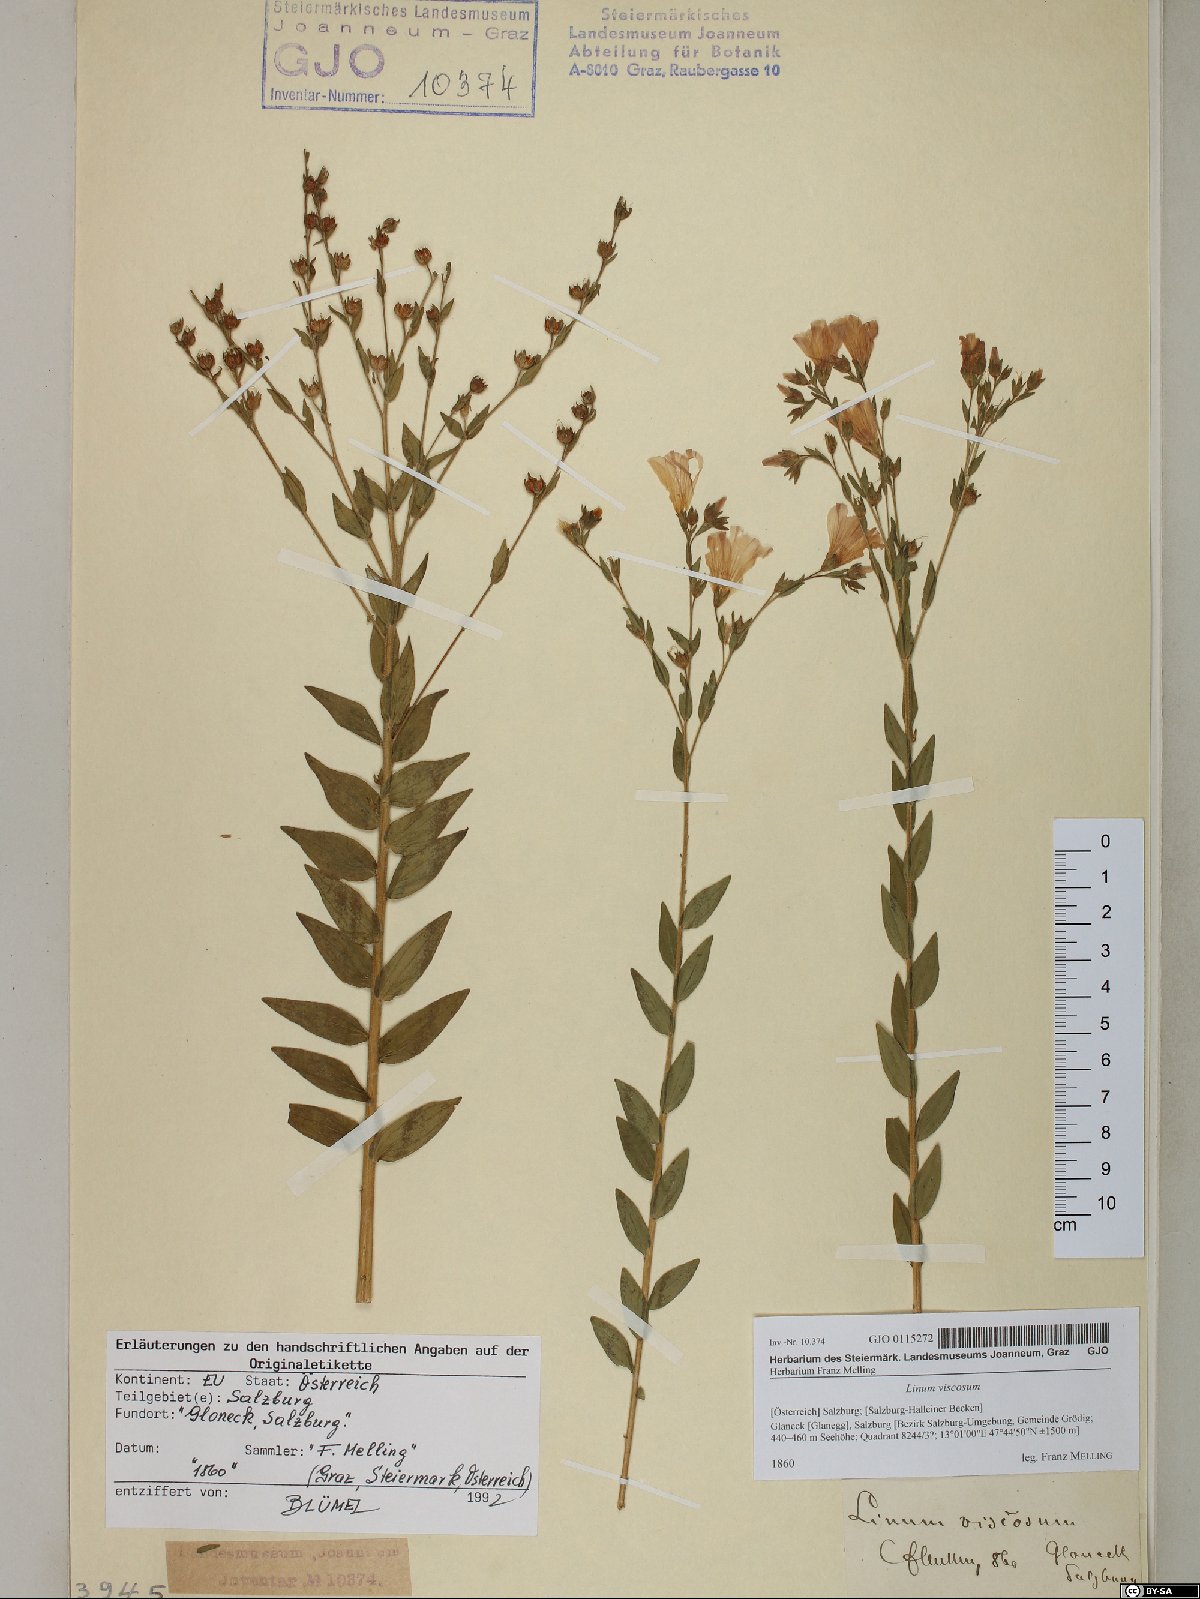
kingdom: Plantae
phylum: Tracheophyta
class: Magnoliopsida
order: Malpighiales
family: Linaceae
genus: Linum
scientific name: Linum viscosum
